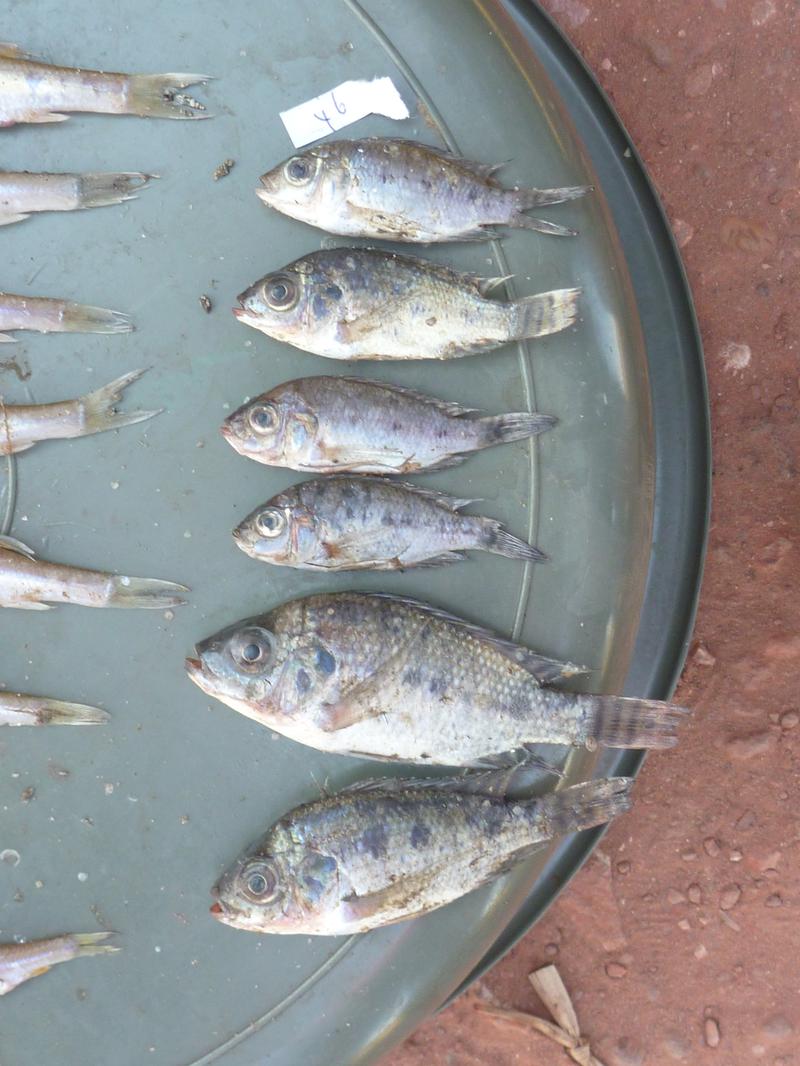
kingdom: Animalia
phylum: Chordata
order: Perciformes
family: Cichlidae
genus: Oreochromis
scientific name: Oreochromis korogwe
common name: Korogwe tilapia
